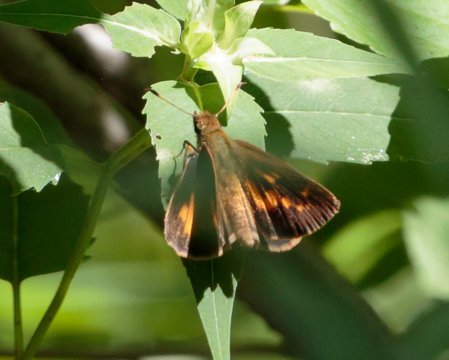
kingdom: Animalia
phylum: Arthropoda
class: Insecta
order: Lepidoptera
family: Hesperiidae
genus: Poanes
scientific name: Poanes viator
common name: Broad-winged Skipper
